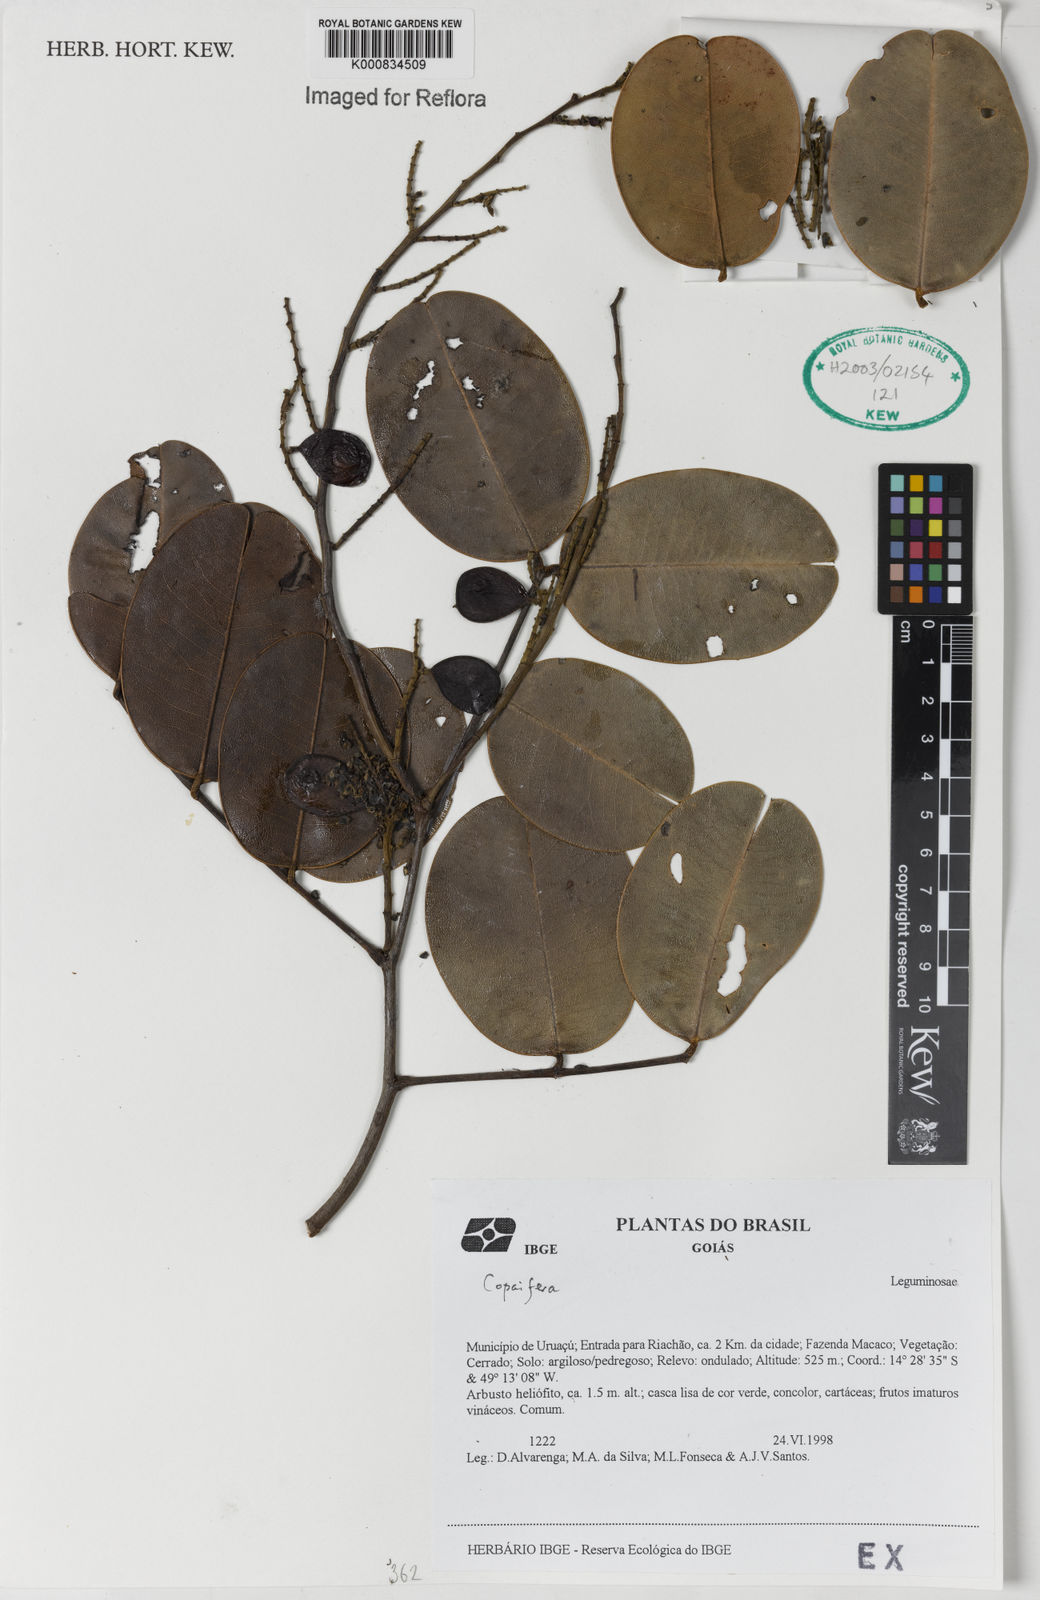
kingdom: Plantae
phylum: Tracheophyta
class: Magnoliopsida
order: Fabales
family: Fabaceae
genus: Copaifera
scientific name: Copaifera
